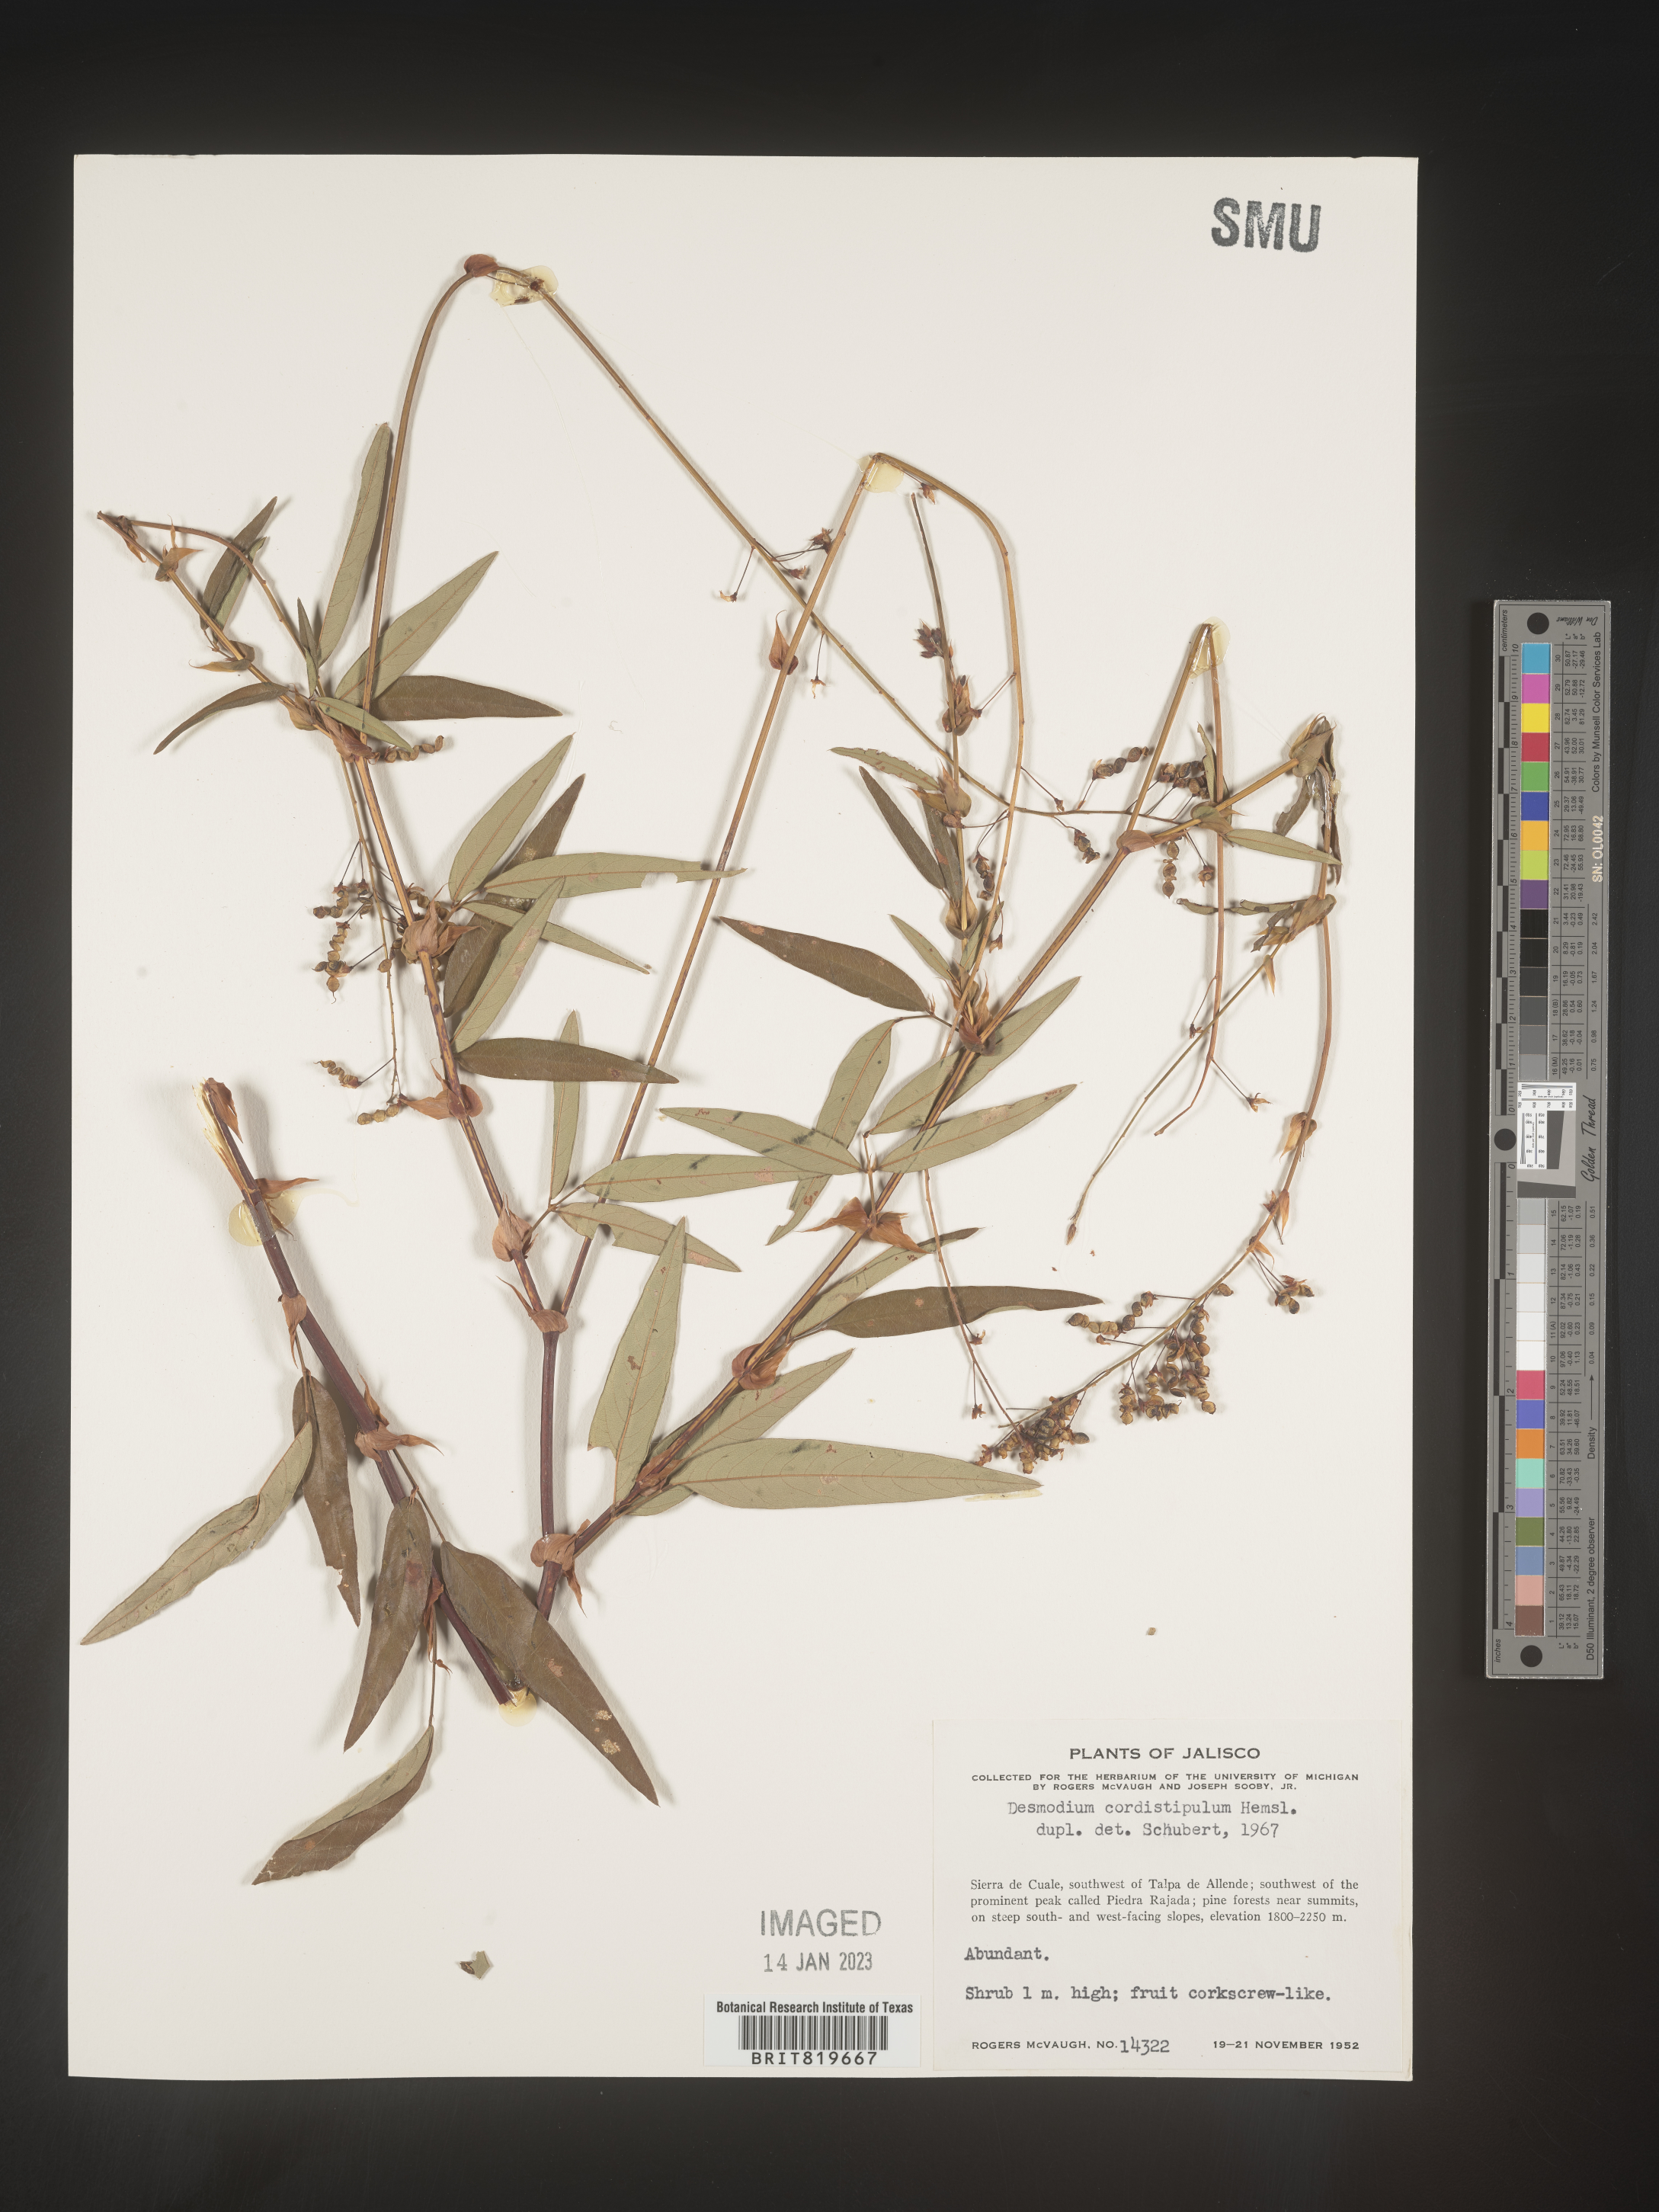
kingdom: Plantae
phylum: Tracheophyta
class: Magnoliopsida
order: Fabales
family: Fabaceae
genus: Desmodium
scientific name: Desmodium
